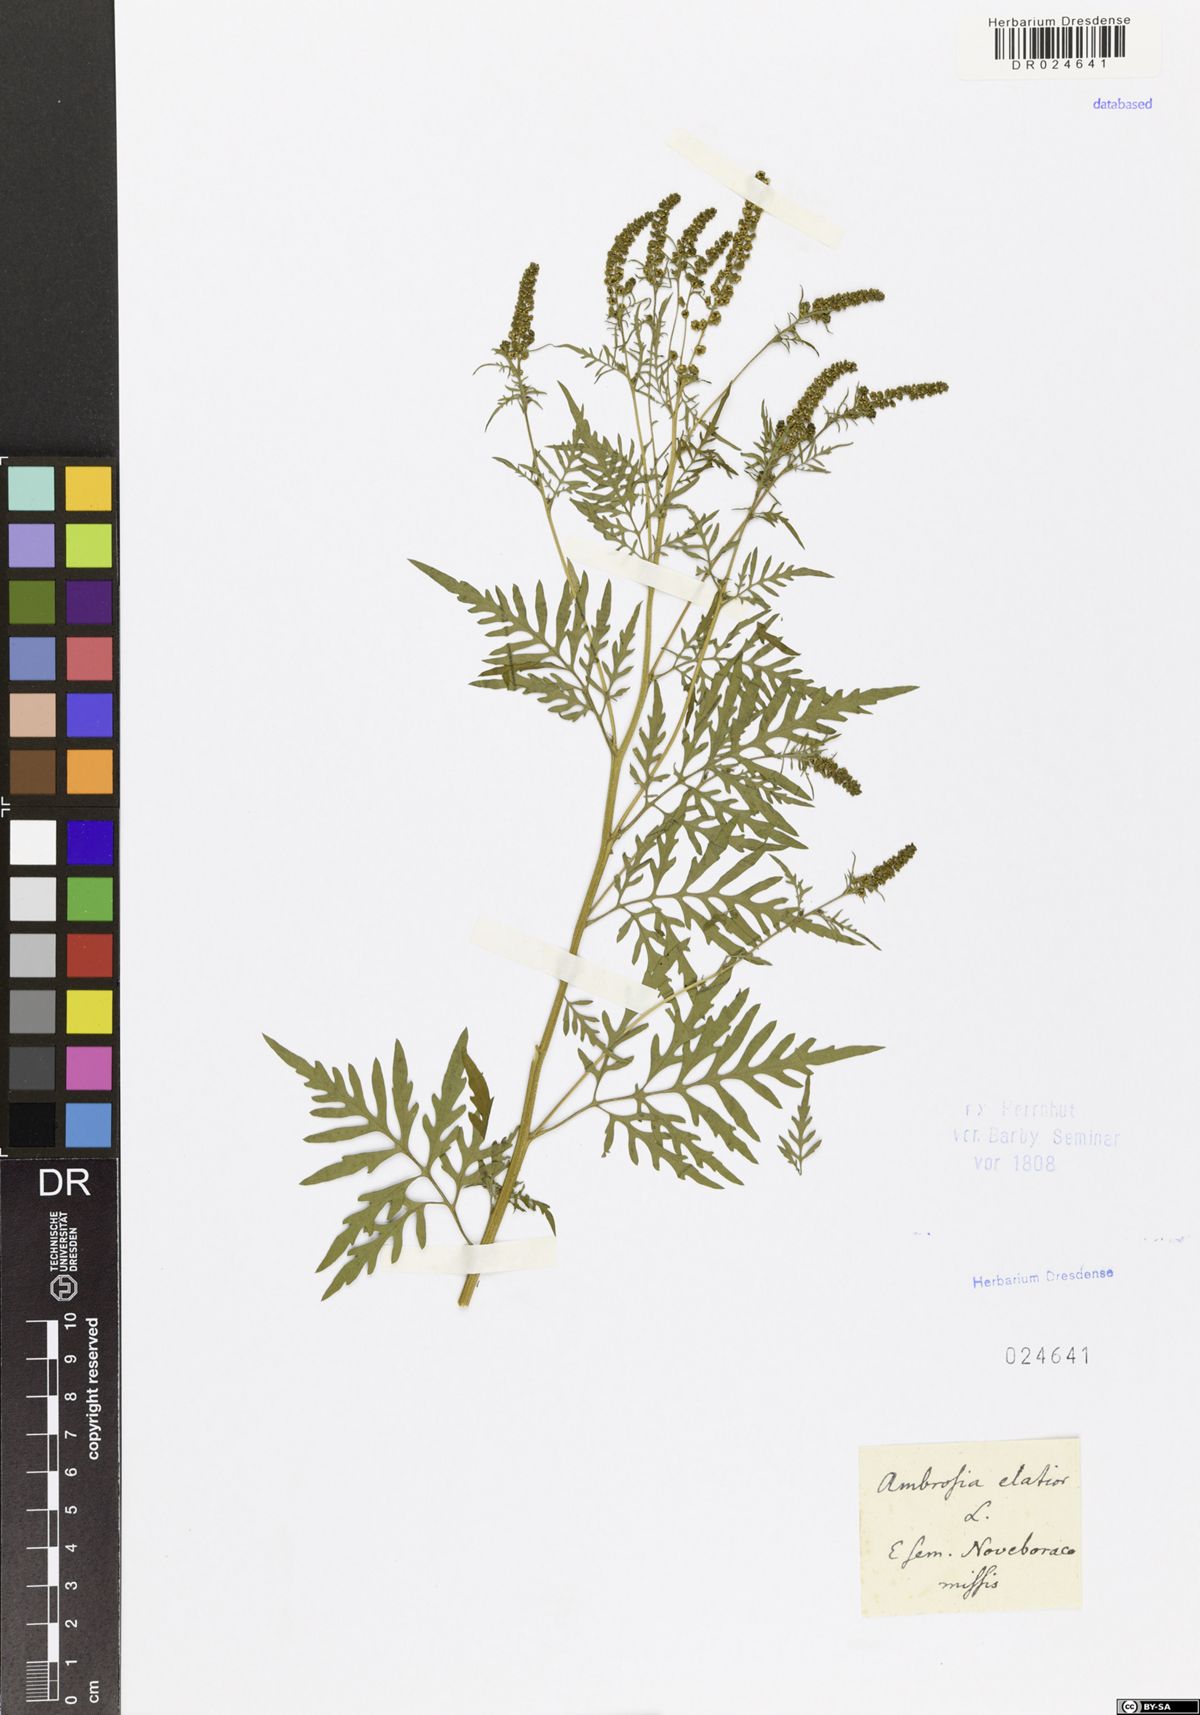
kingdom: Plantae
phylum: Tracheophyta
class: Magnoliopsida
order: Asterales
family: Asteraceae
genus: Ambrosia
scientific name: Ambrosia artemisiifolia
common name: Annual ragweed
